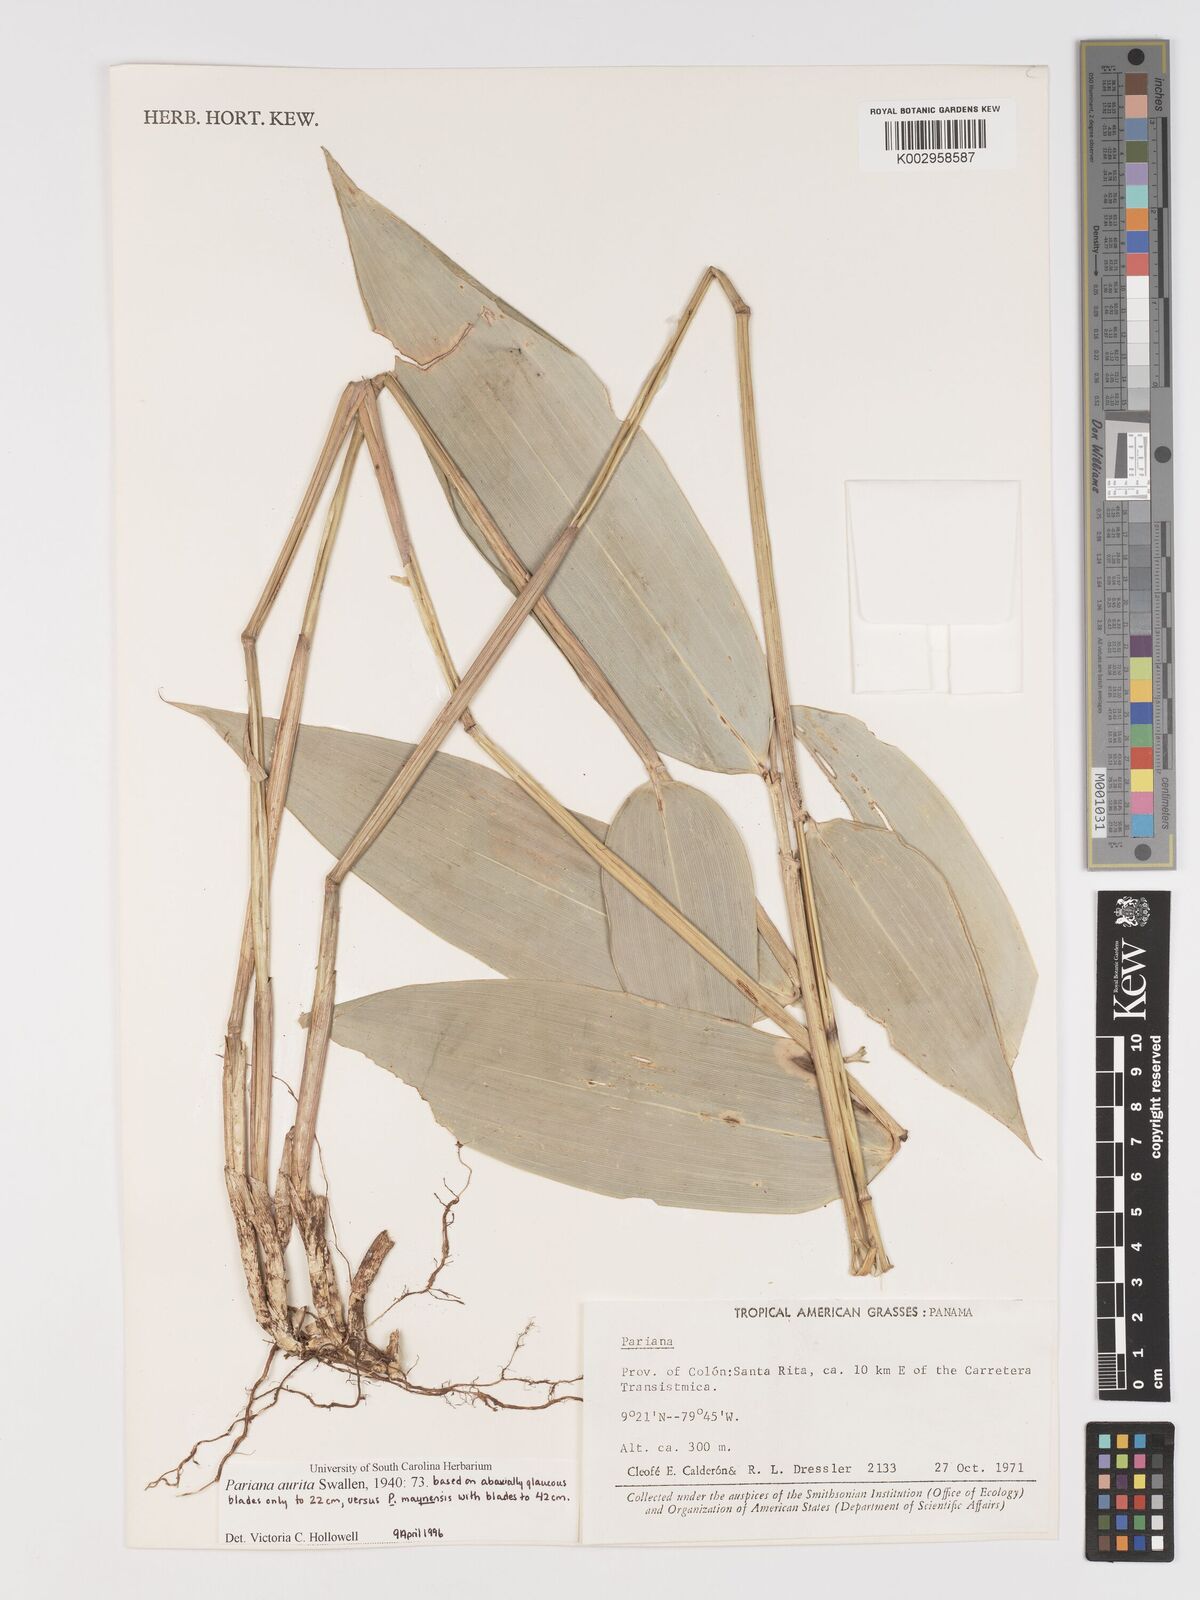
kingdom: Plantae
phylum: Tracheophyta
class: Liliopsida
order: Poales
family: Poaceae
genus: Pariana
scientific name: Pariana aurita
